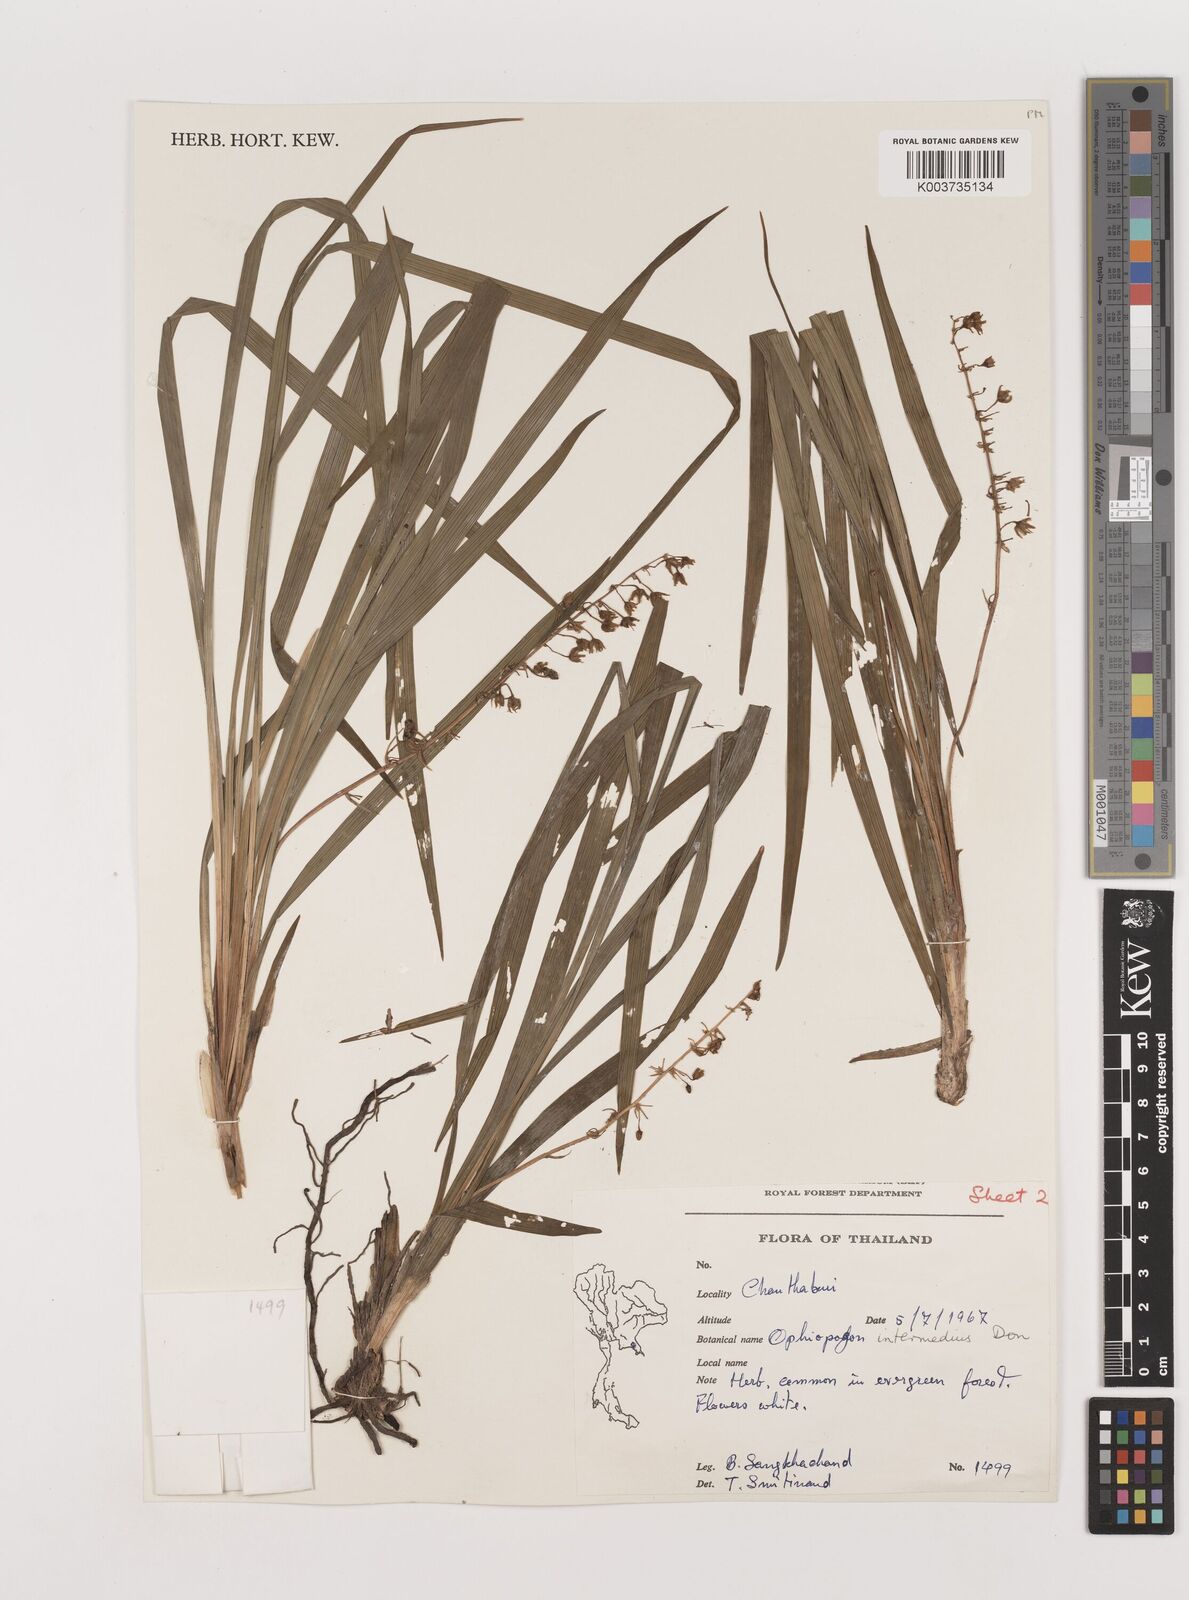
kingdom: Plantae
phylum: Tracheophyta
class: Liliopsida
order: Asparagales
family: Asparagaceae
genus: Ophiopogon
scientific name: Ophiopogon intermedius
